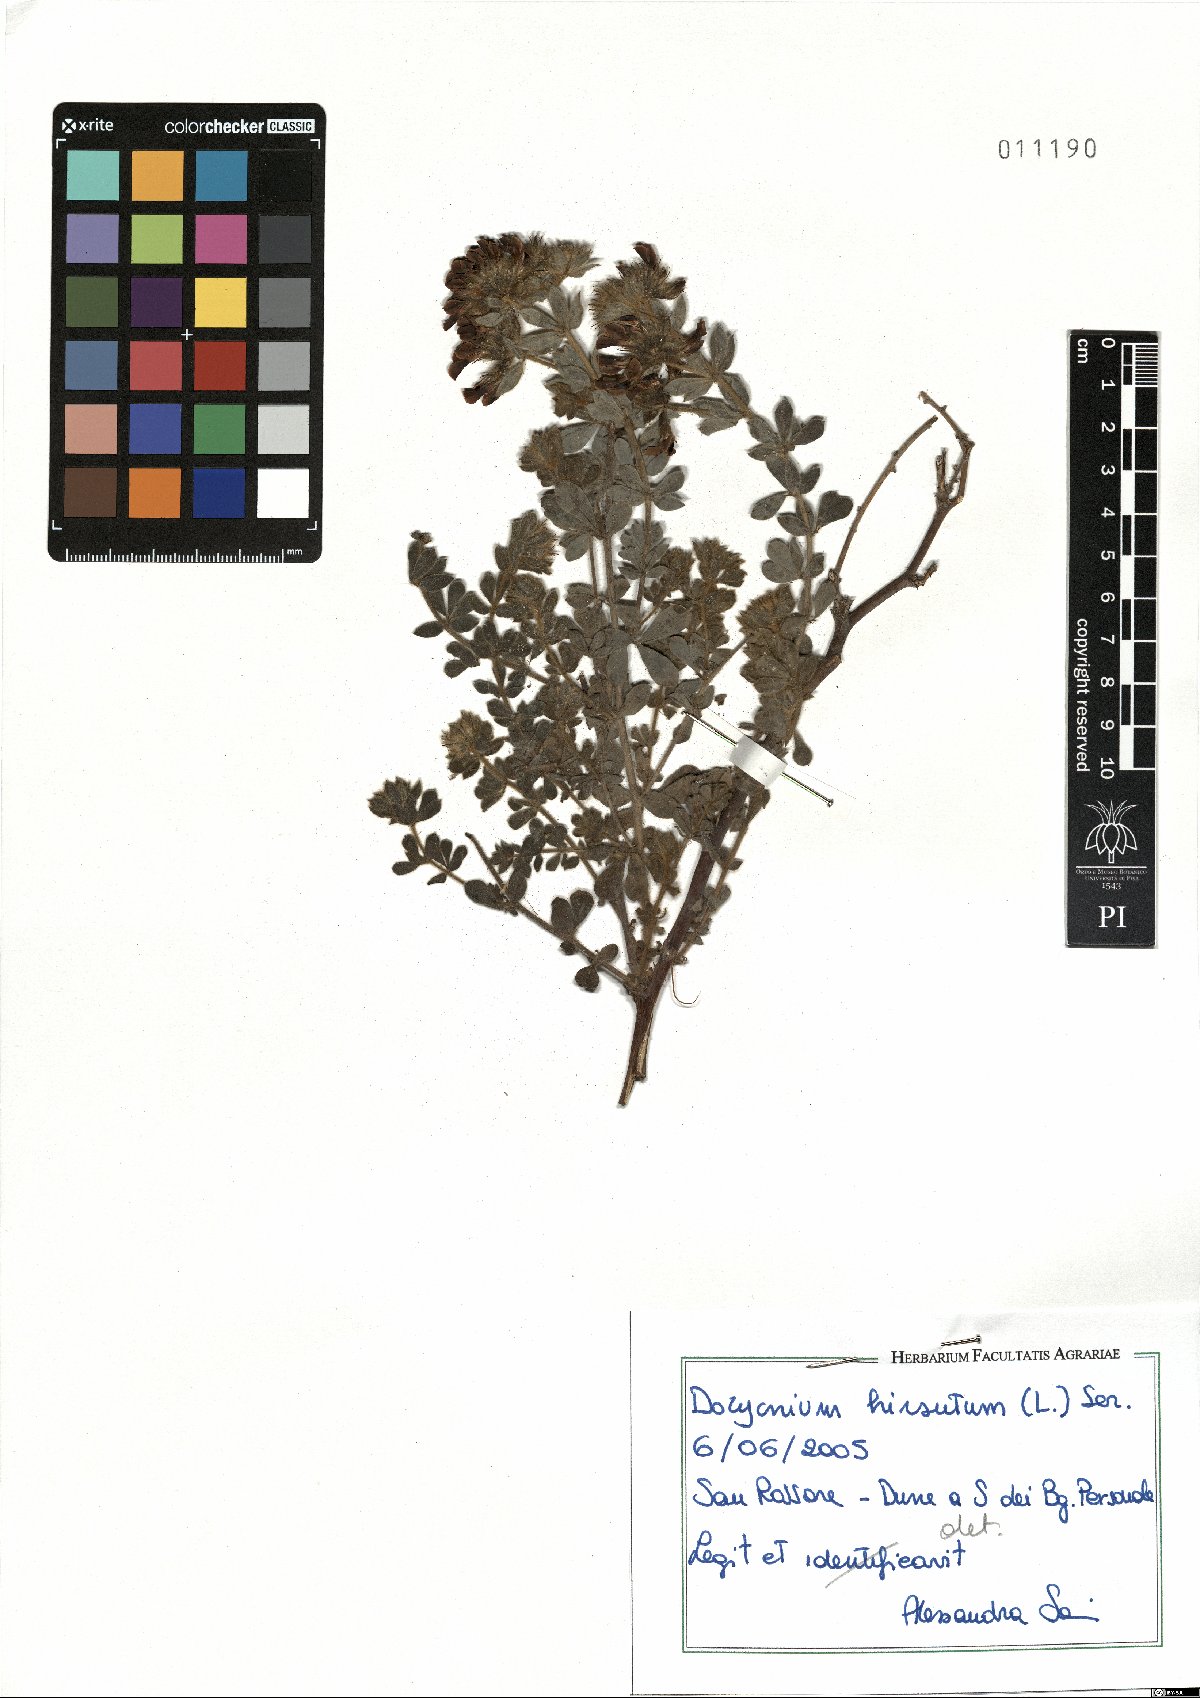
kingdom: Plantae
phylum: Tracheophyta
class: Magnoliopsida
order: Fabales
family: Fabaceae
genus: Lotus
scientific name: Lotus hirsutus
